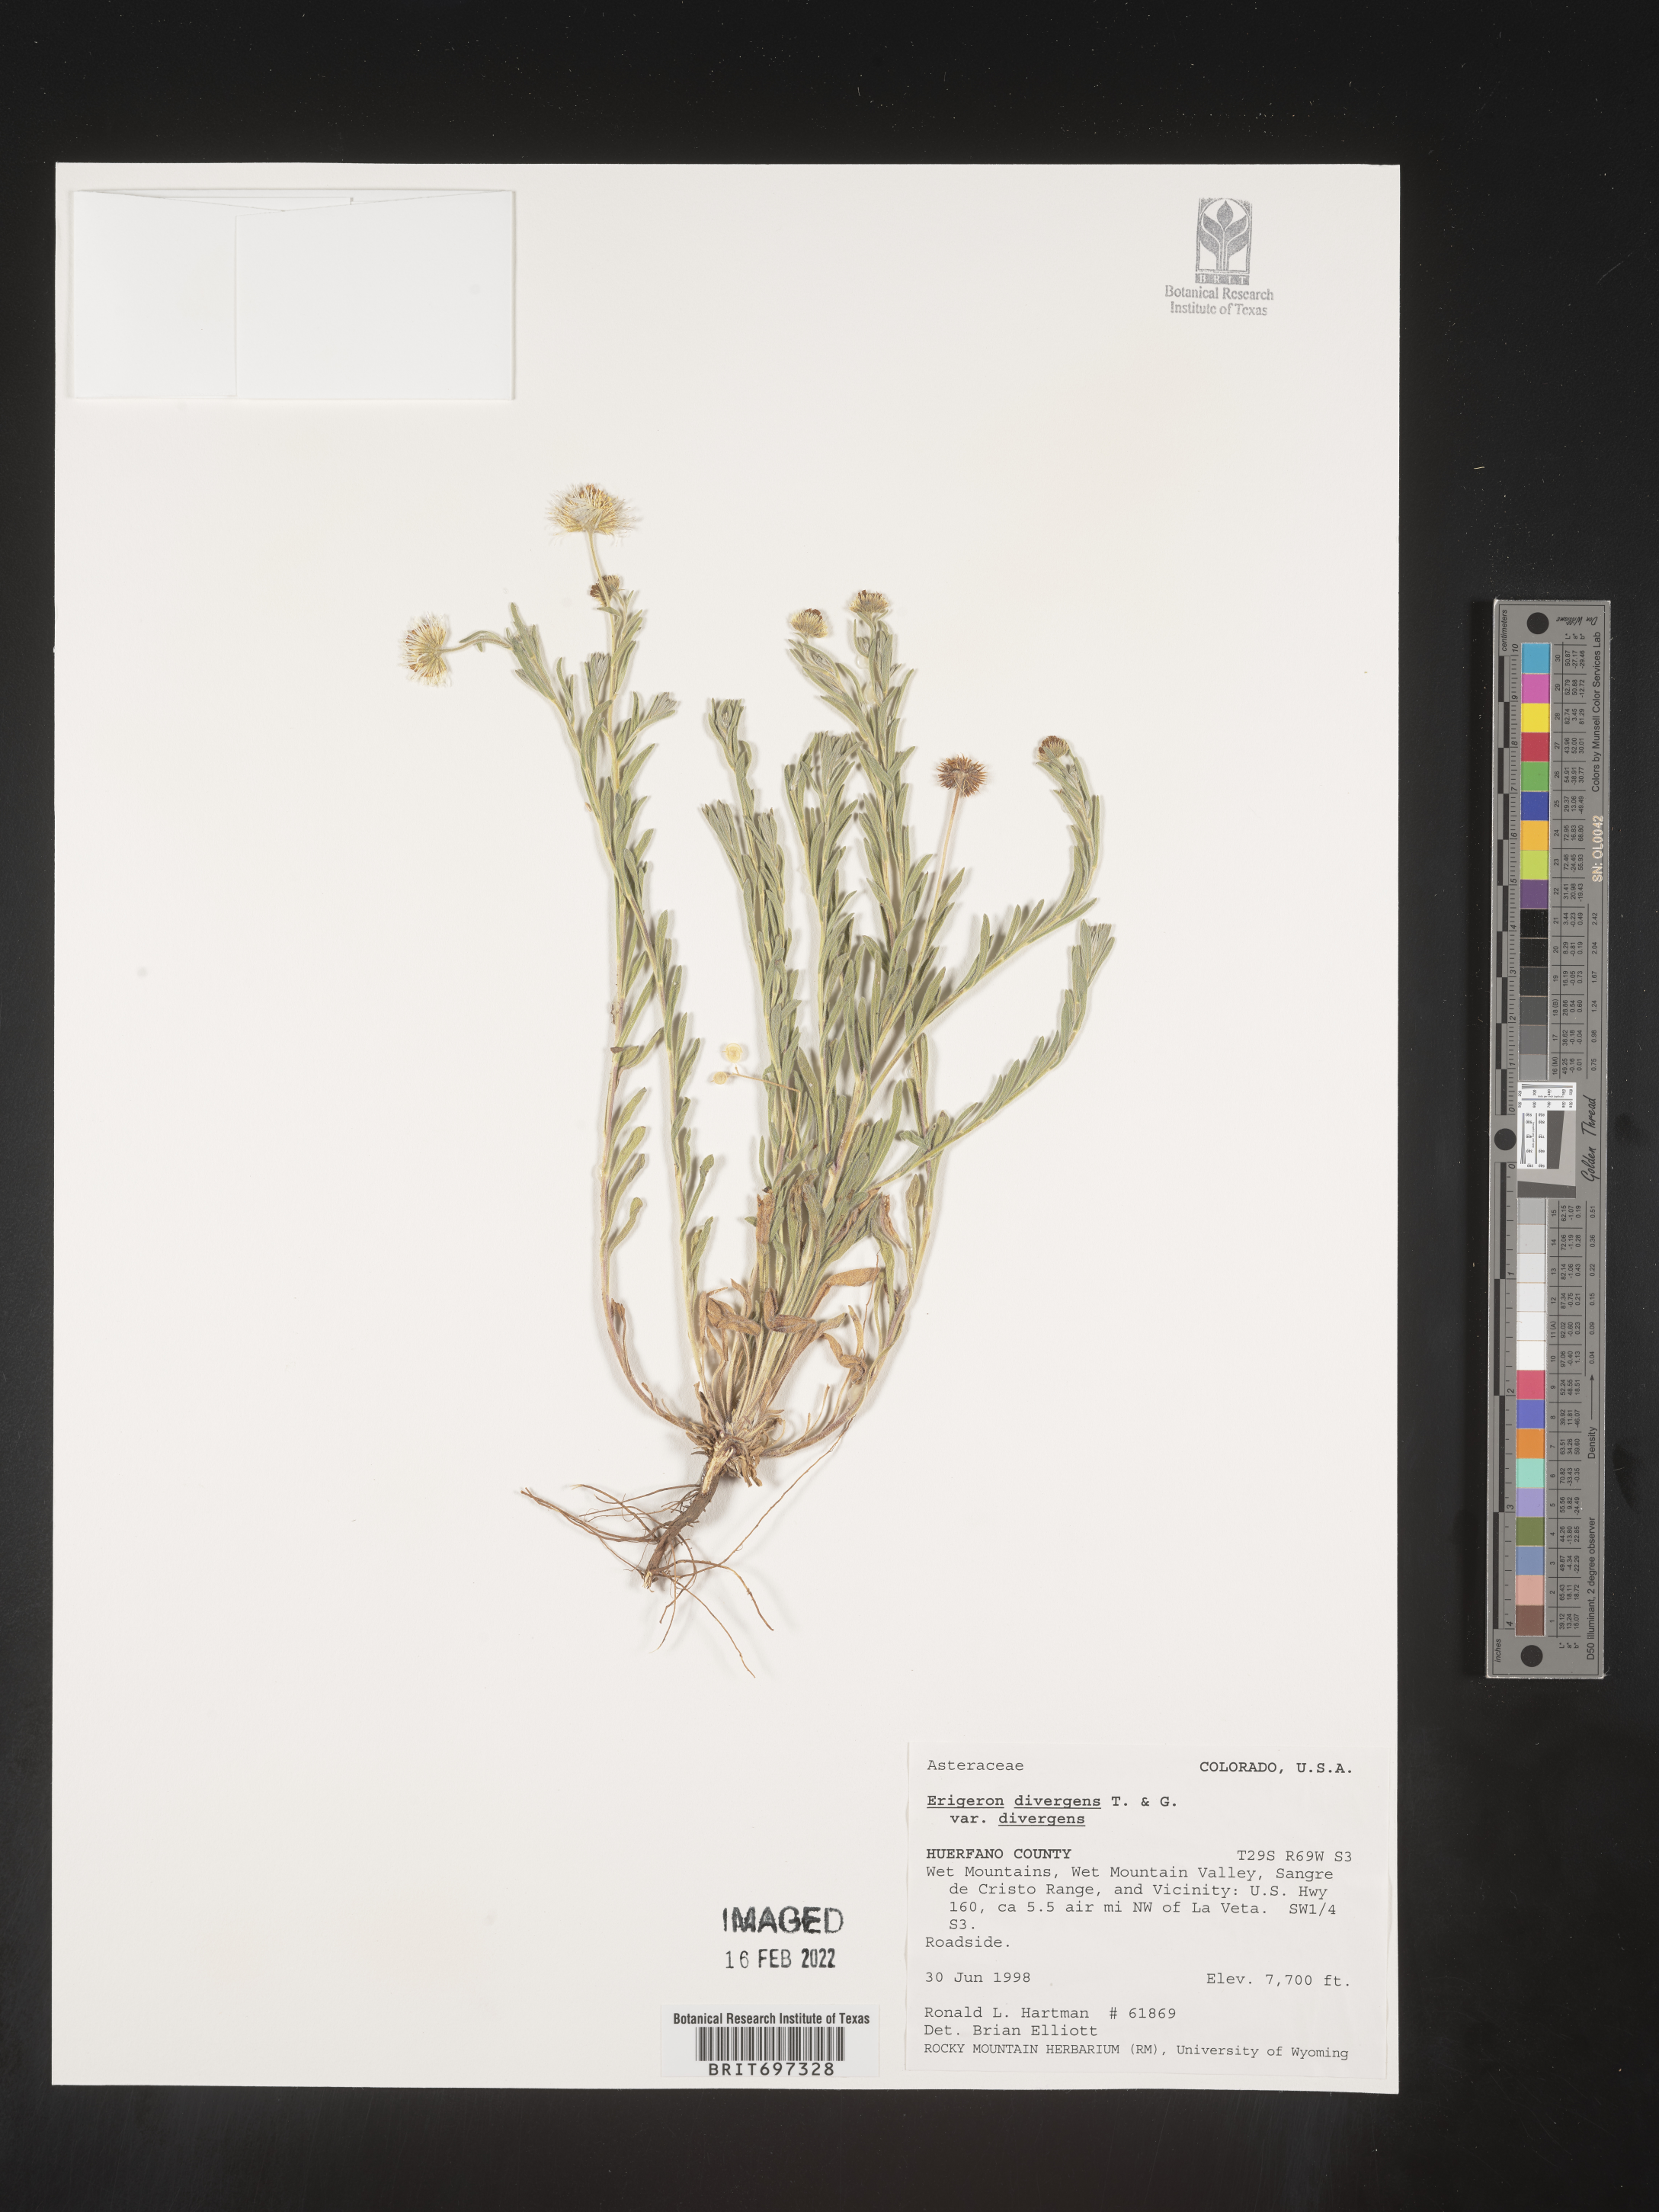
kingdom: Plantae
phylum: Tracheophyta
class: Magnoliopsida
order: Asterales
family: Asteraceae
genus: Erigeron
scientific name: Erigeron divergens
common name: Diffuse fleabane
